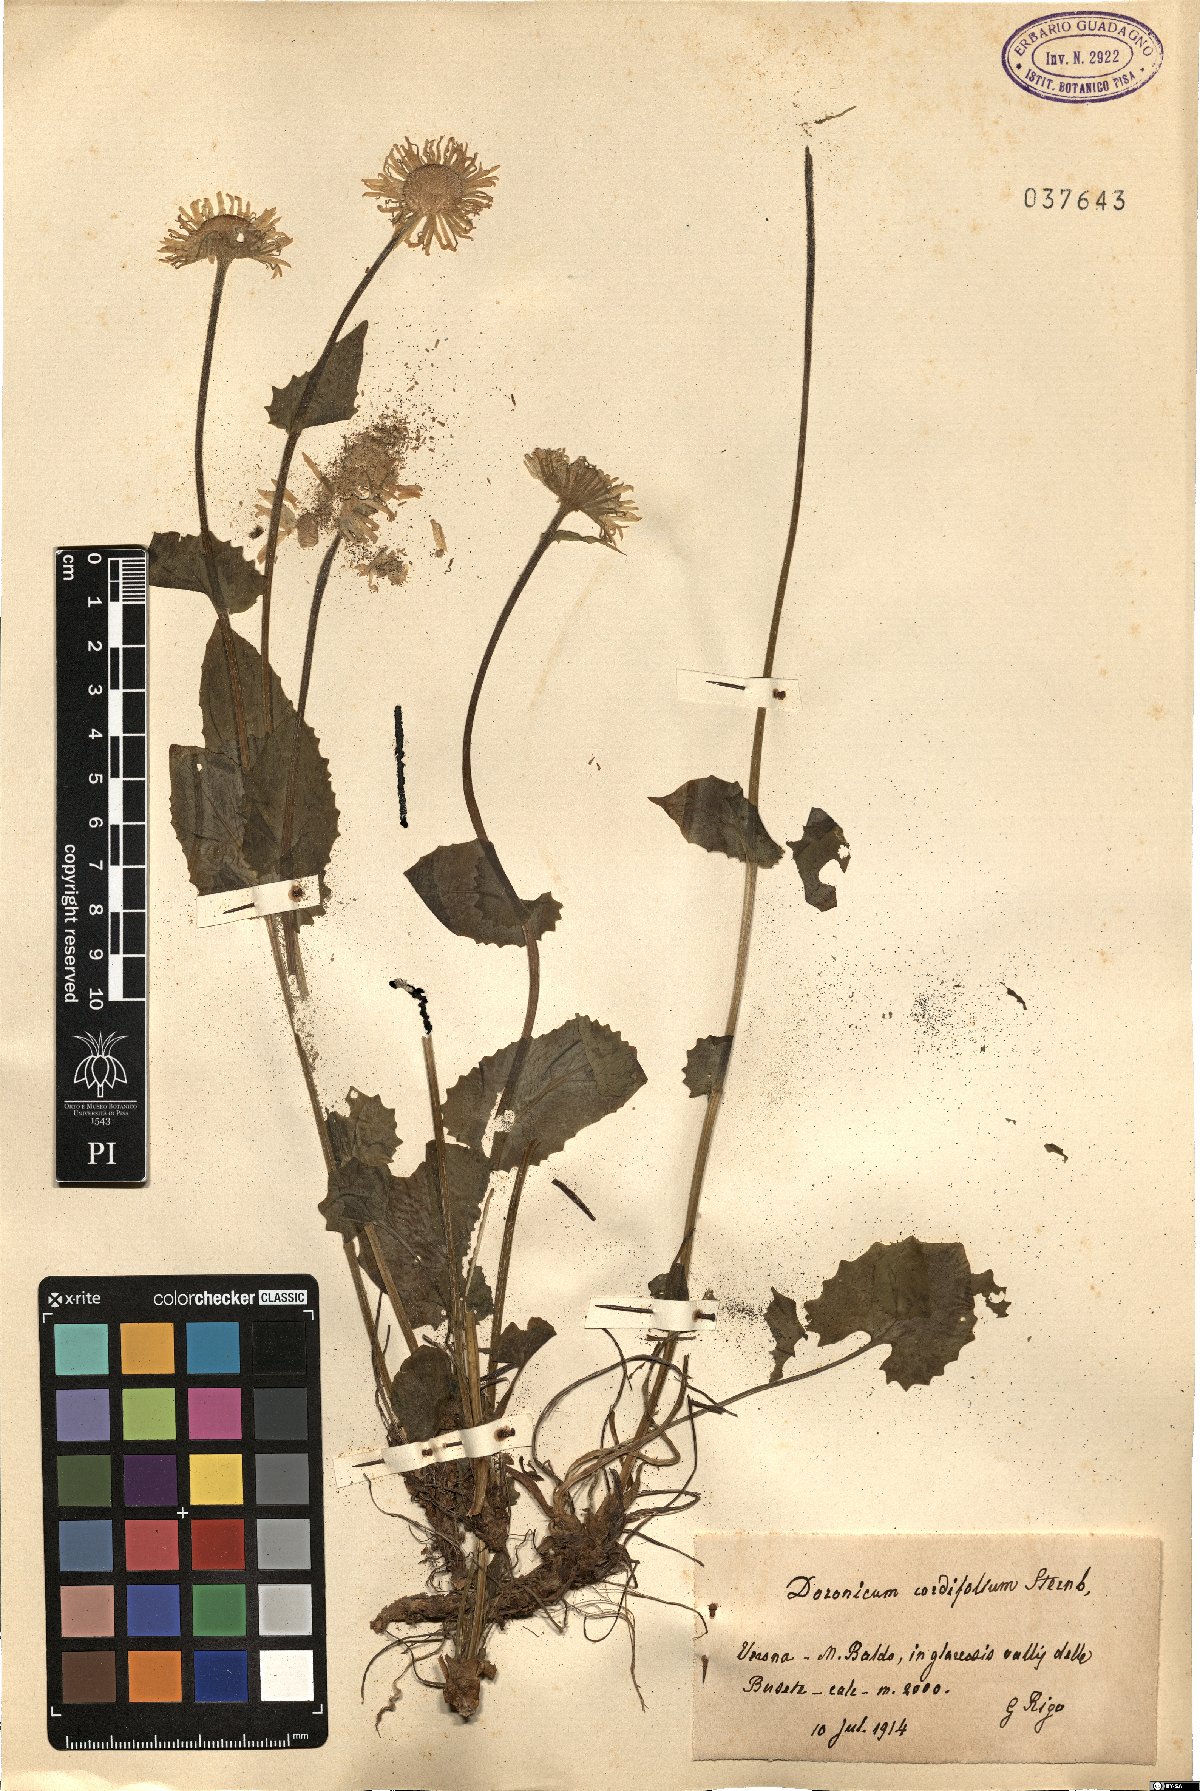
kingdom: Plantae
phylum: Tracheophyta
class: Magnoliopsida
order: Asterales
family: Asteraceae
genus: Doronicum
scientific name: Doronicum columnae
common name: Eastern leopard's-bane
